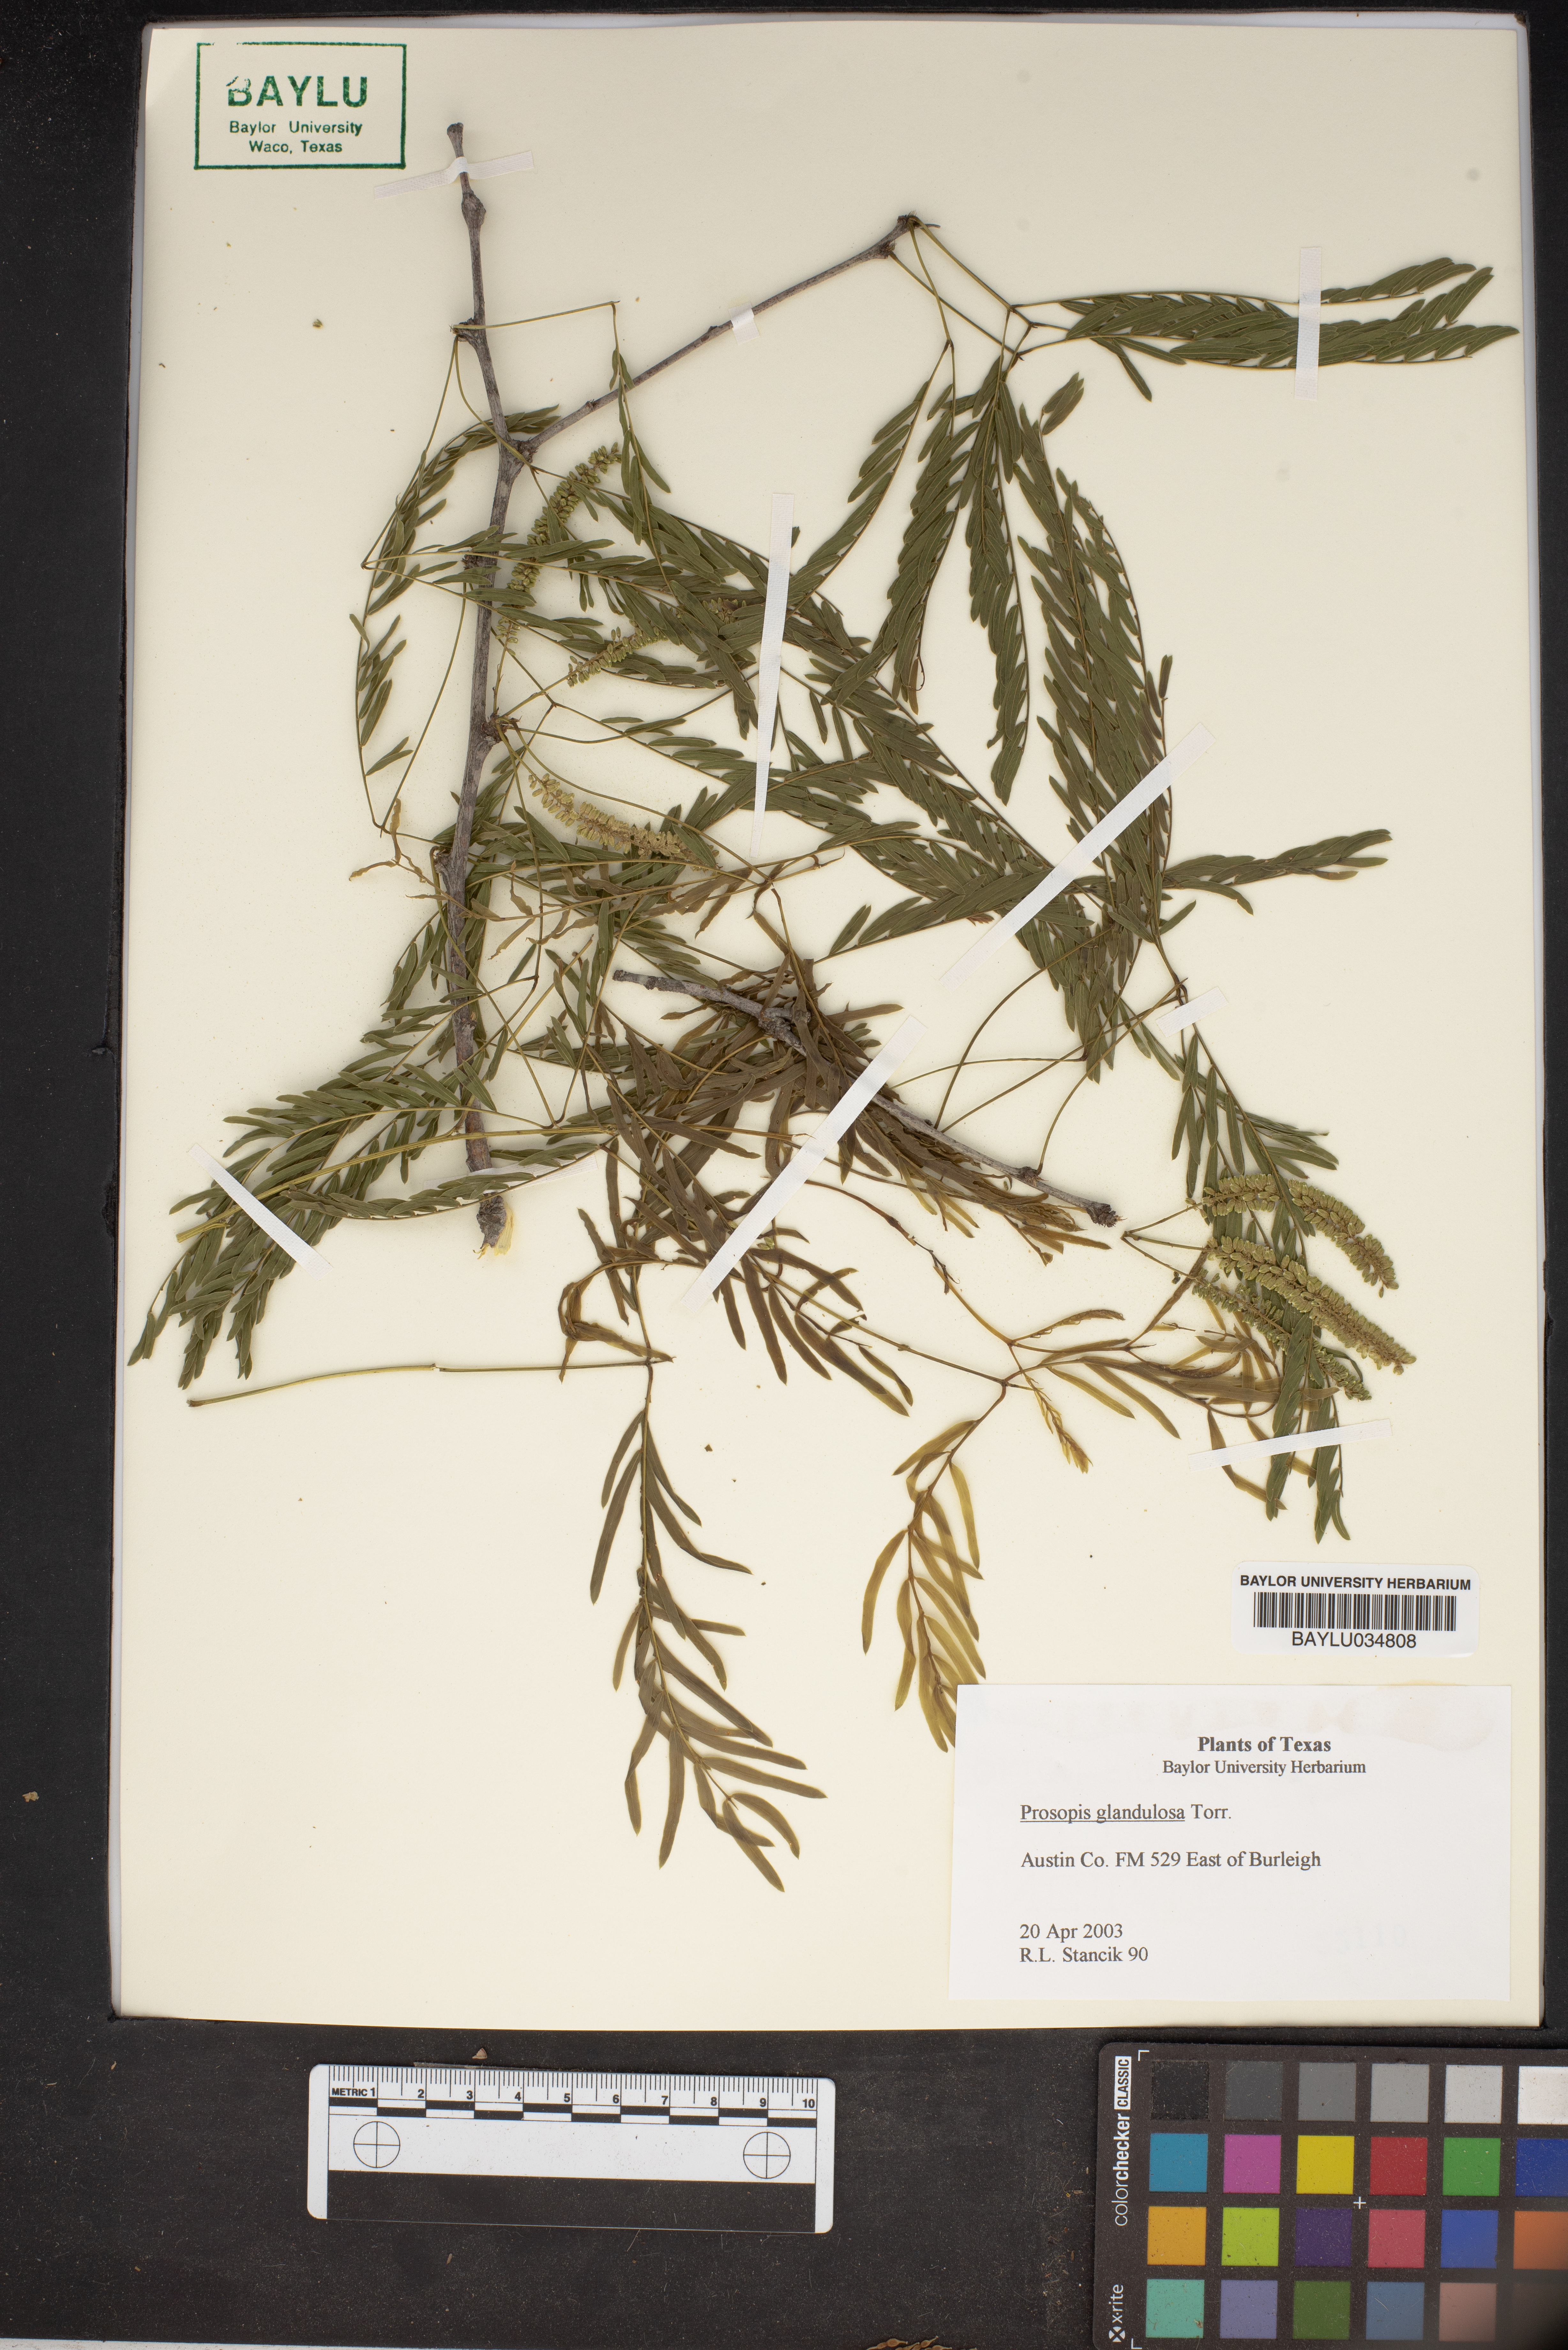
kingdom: Plantae
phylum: Tracheophyta
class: Magnoliopsida
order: Fabales
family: Fabaceae
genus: Prosopis
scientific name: Prosopis glandulosa
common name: Honey mesquite
